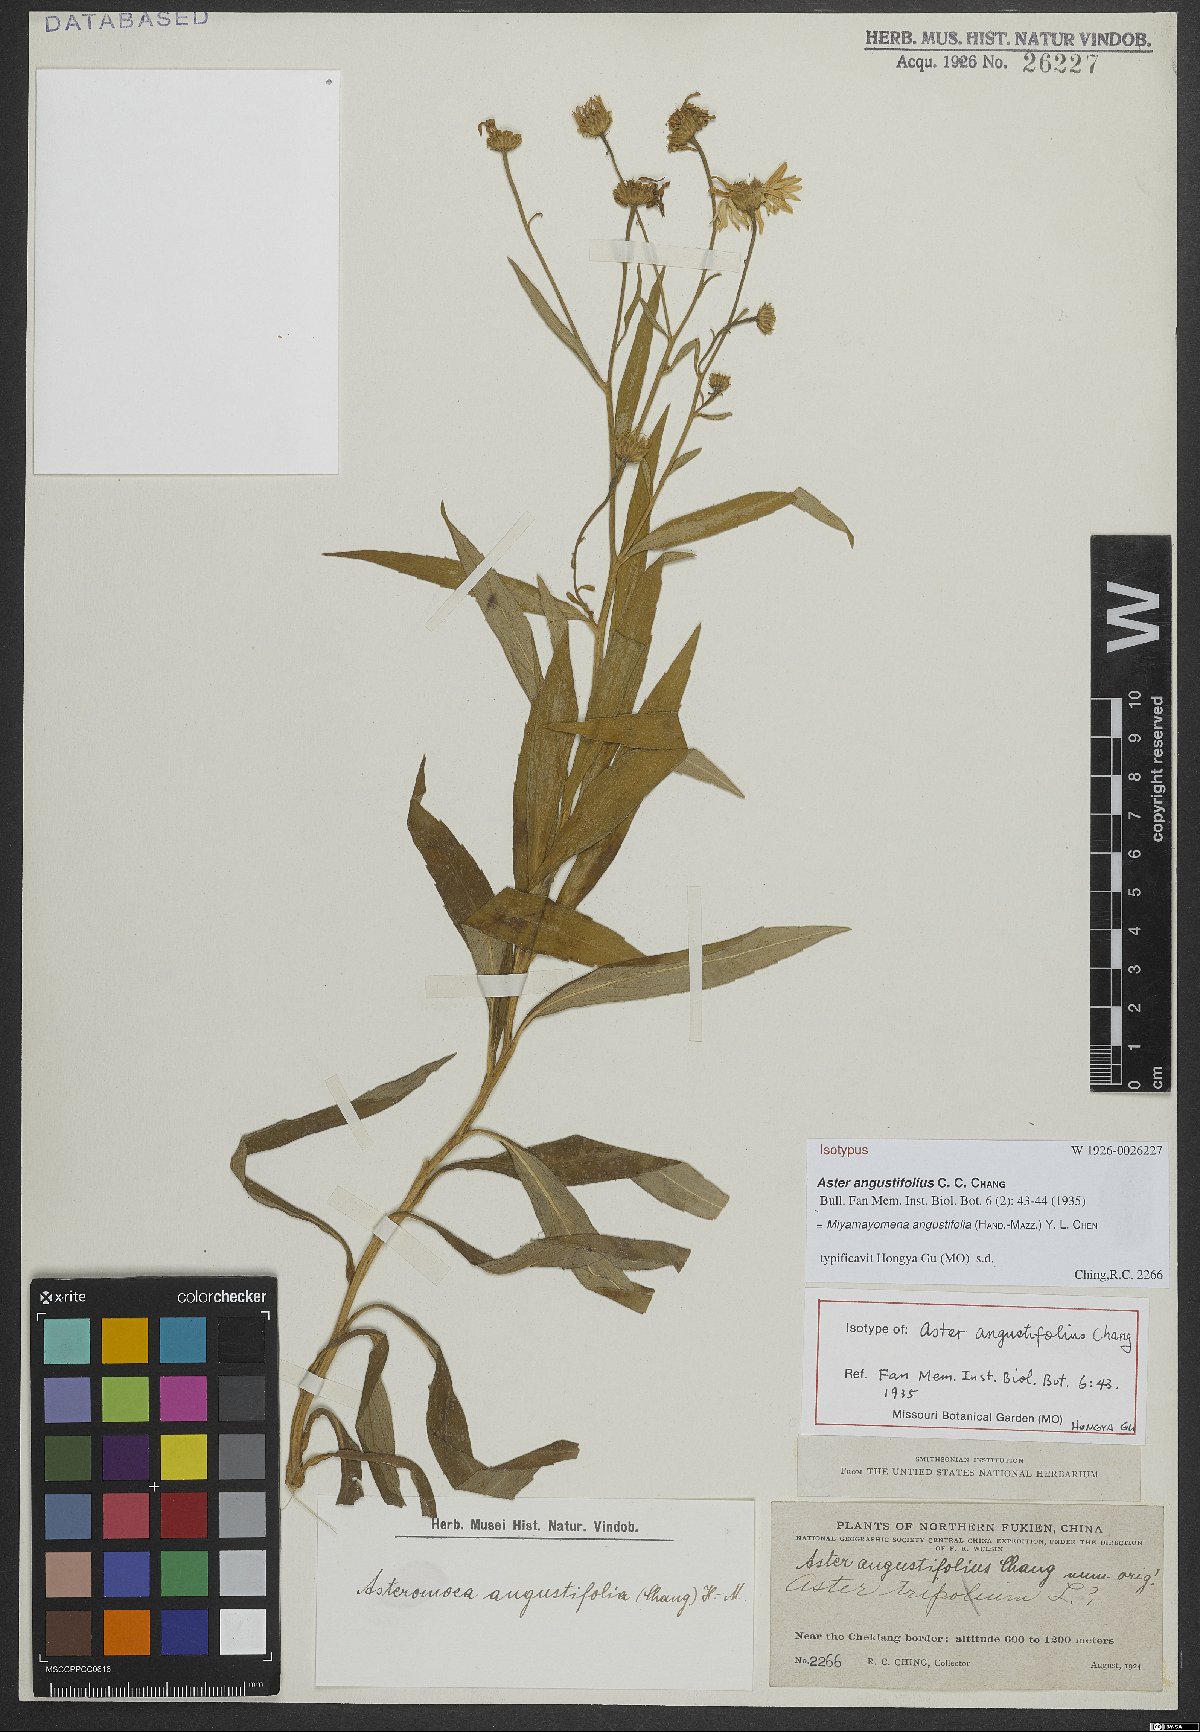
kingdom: Plantae
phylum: Tracheophyta
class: Magnoliopsida
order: Asterales
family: Asteraceae
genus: Aster
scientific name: Aster sinoangustifolius
